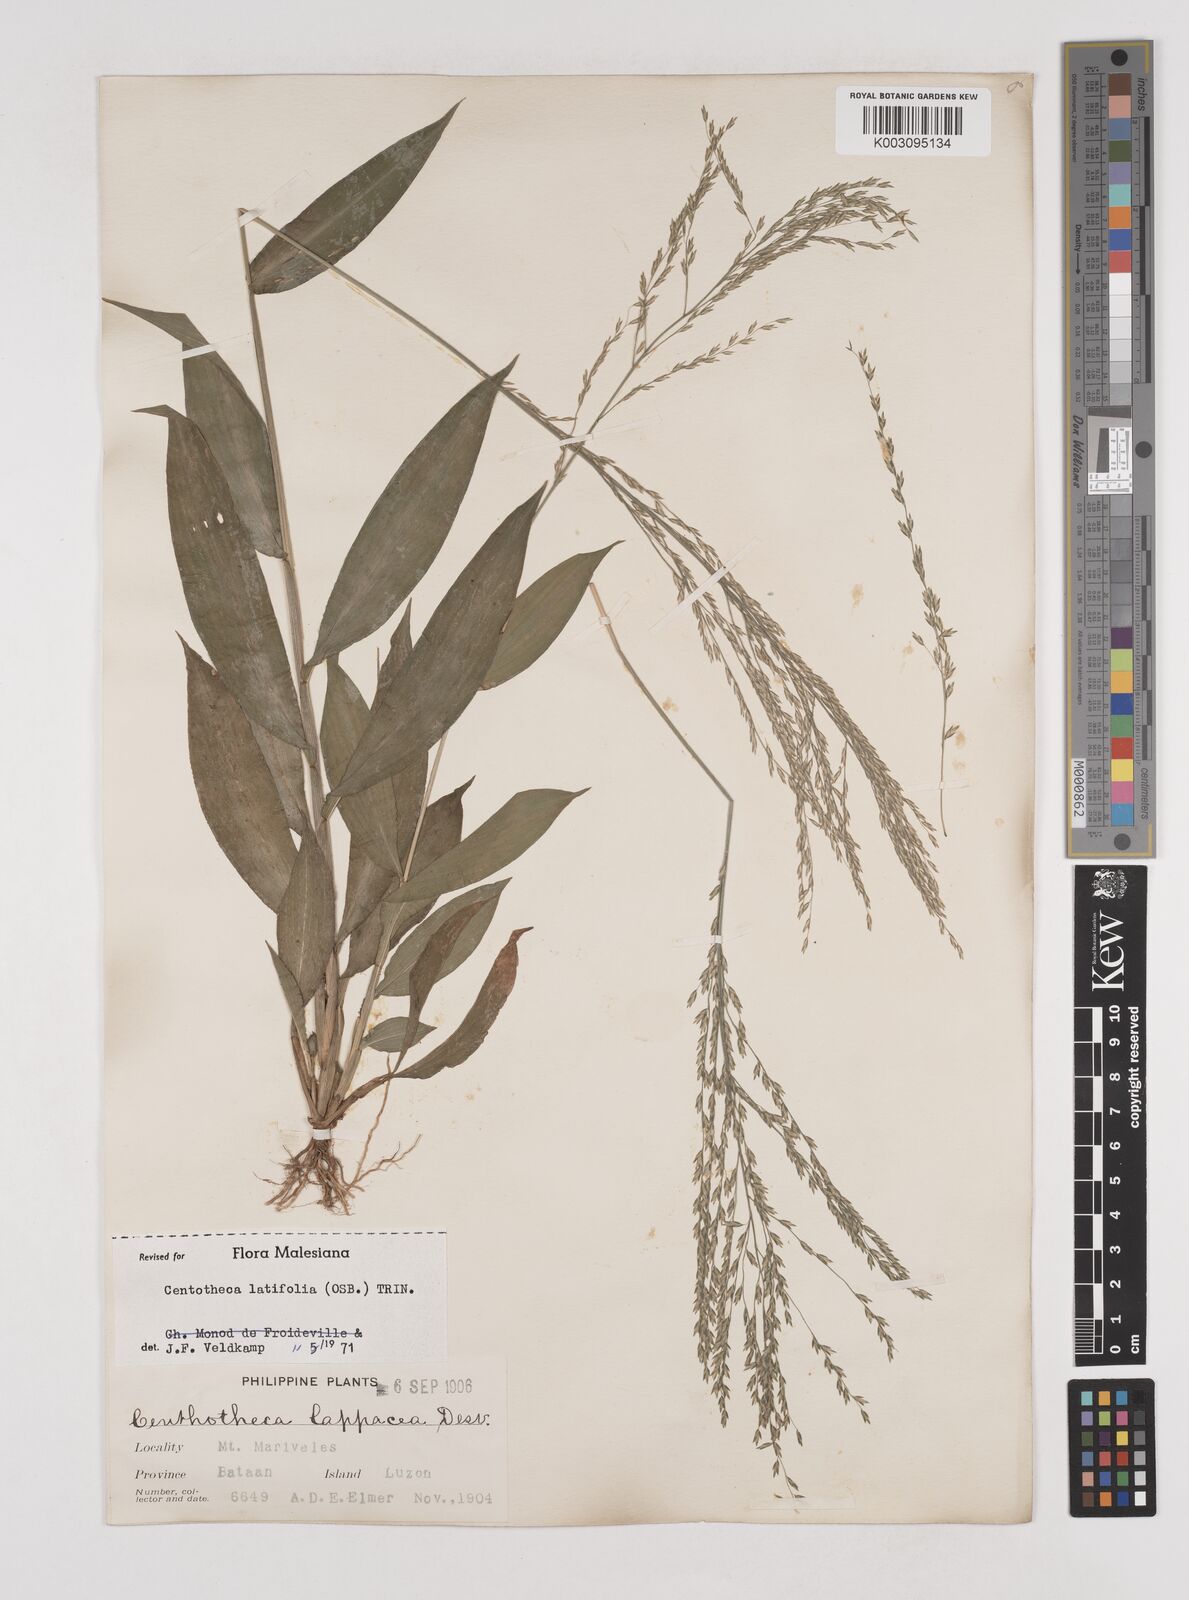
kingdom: Plantae
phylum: Tracheophyta
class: Liliopsida
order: Poales
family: Poaceae
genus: Centotheca
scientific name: Centotheca lappacea
